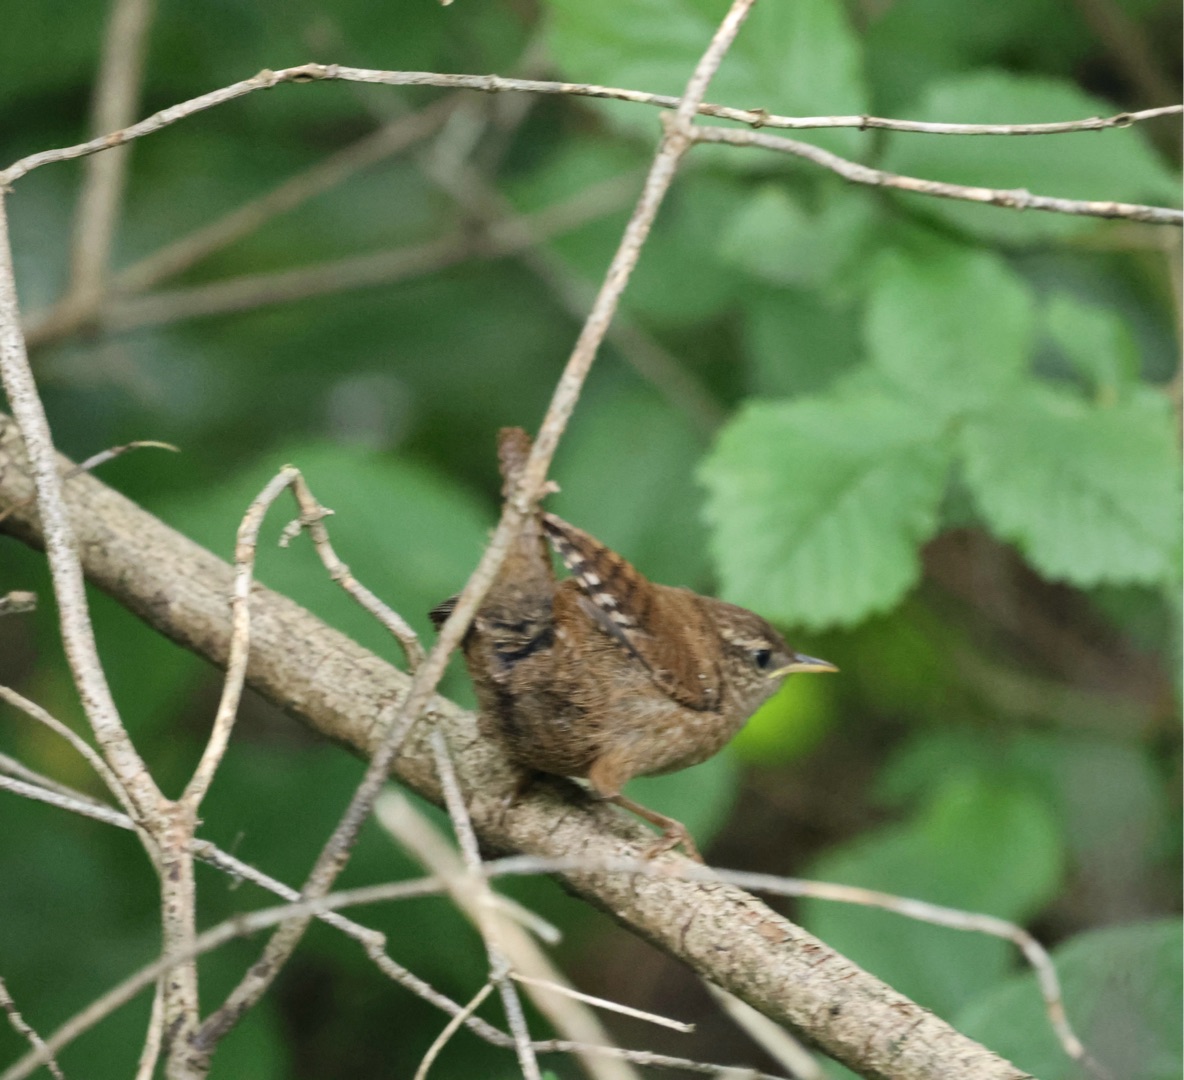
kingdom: Animalia
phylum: Chordata
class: Aves
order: Passeriformes
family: Troglodytidae
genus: Troglodytes
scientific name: Troglodytes troglodytes
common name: Gærdesmutte
